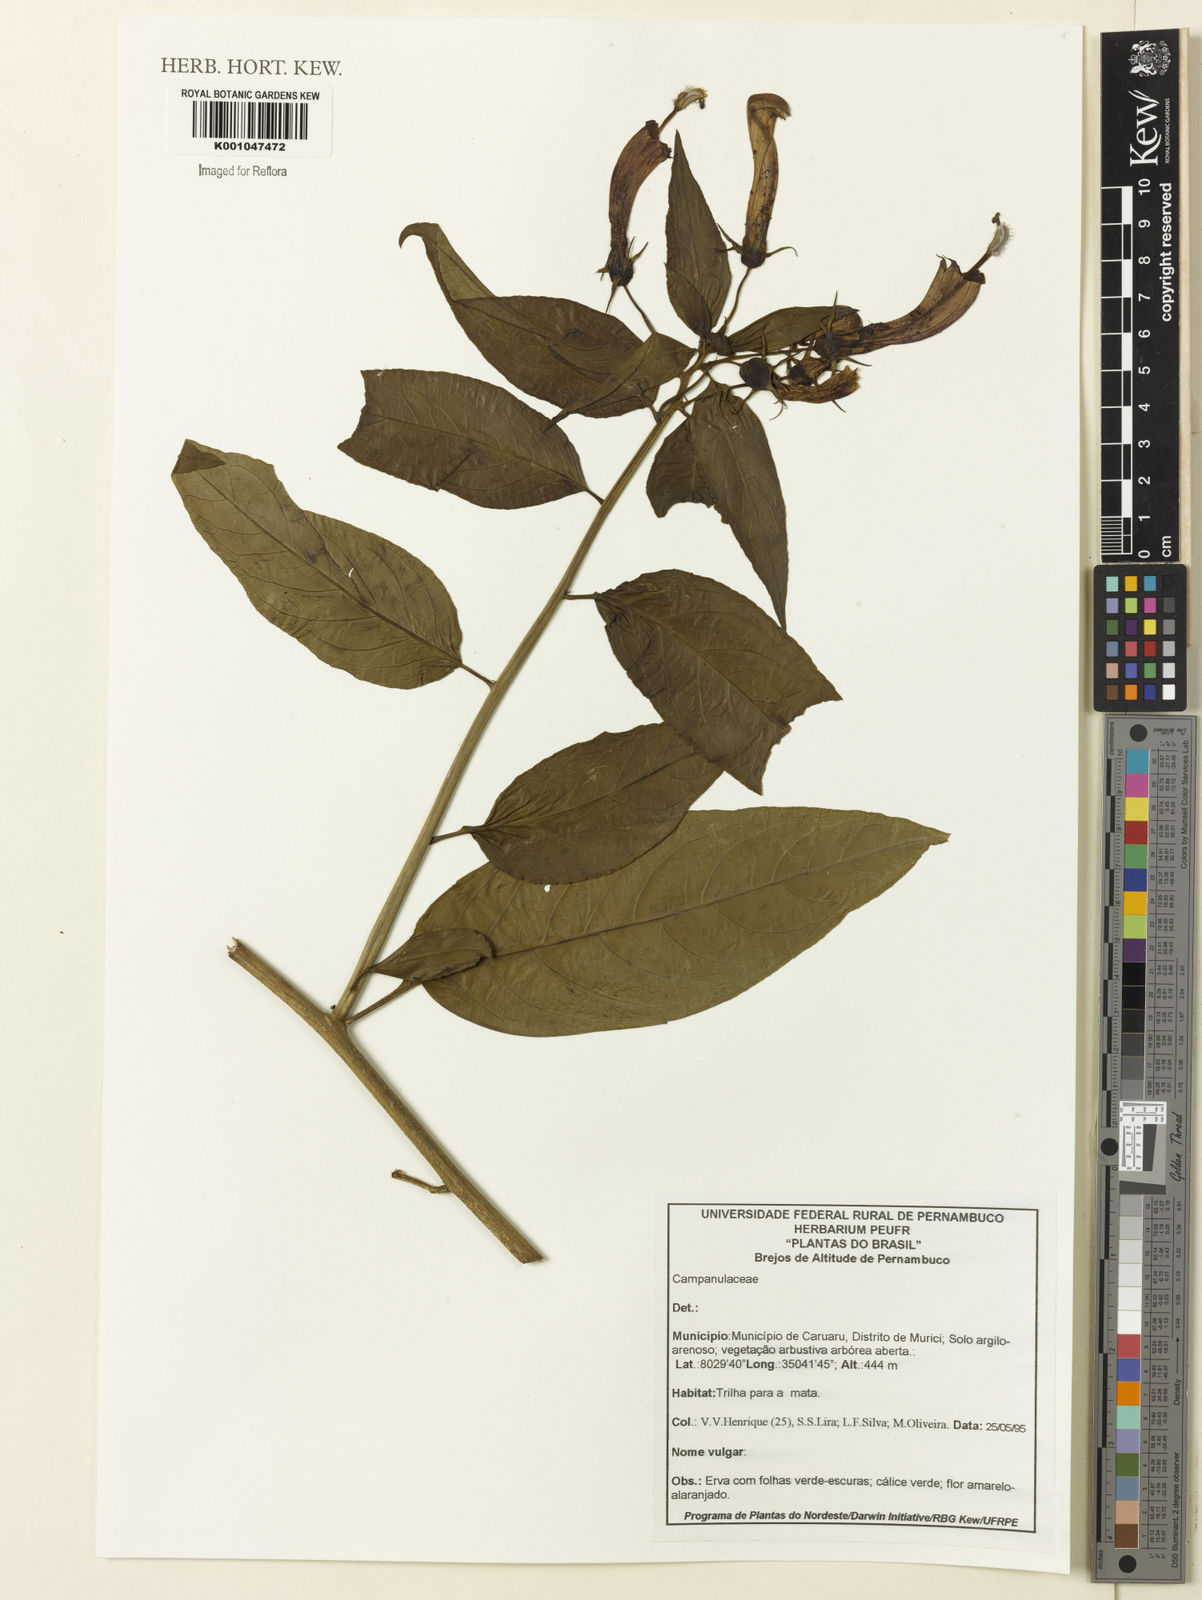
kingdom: Plantae
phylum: Tracheophyta
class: Magnoliopsida
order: Asterales
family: Campanulaceae
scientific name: Campanulaceae
